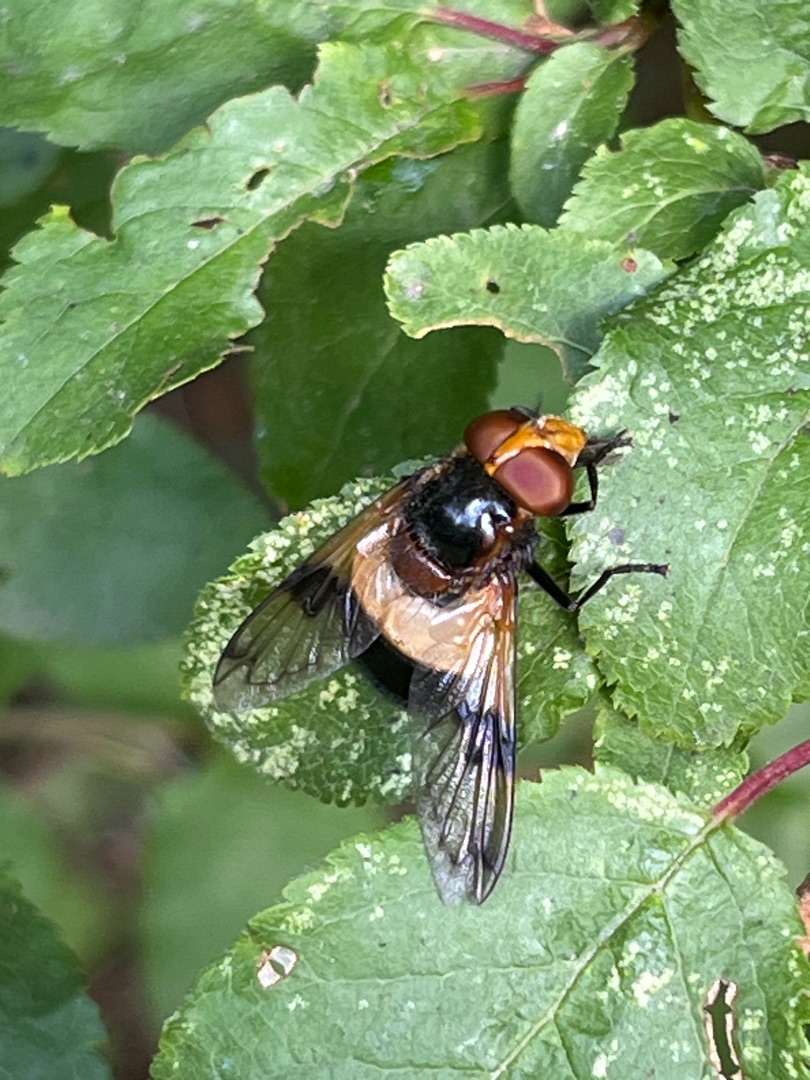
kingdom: Animalia
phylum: Arthropoda
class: Insecta
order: Diptera
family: Syrphidae
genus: Volucella
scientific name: Volucella pellucens
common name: Hvidbåndet humlesvirreflue
